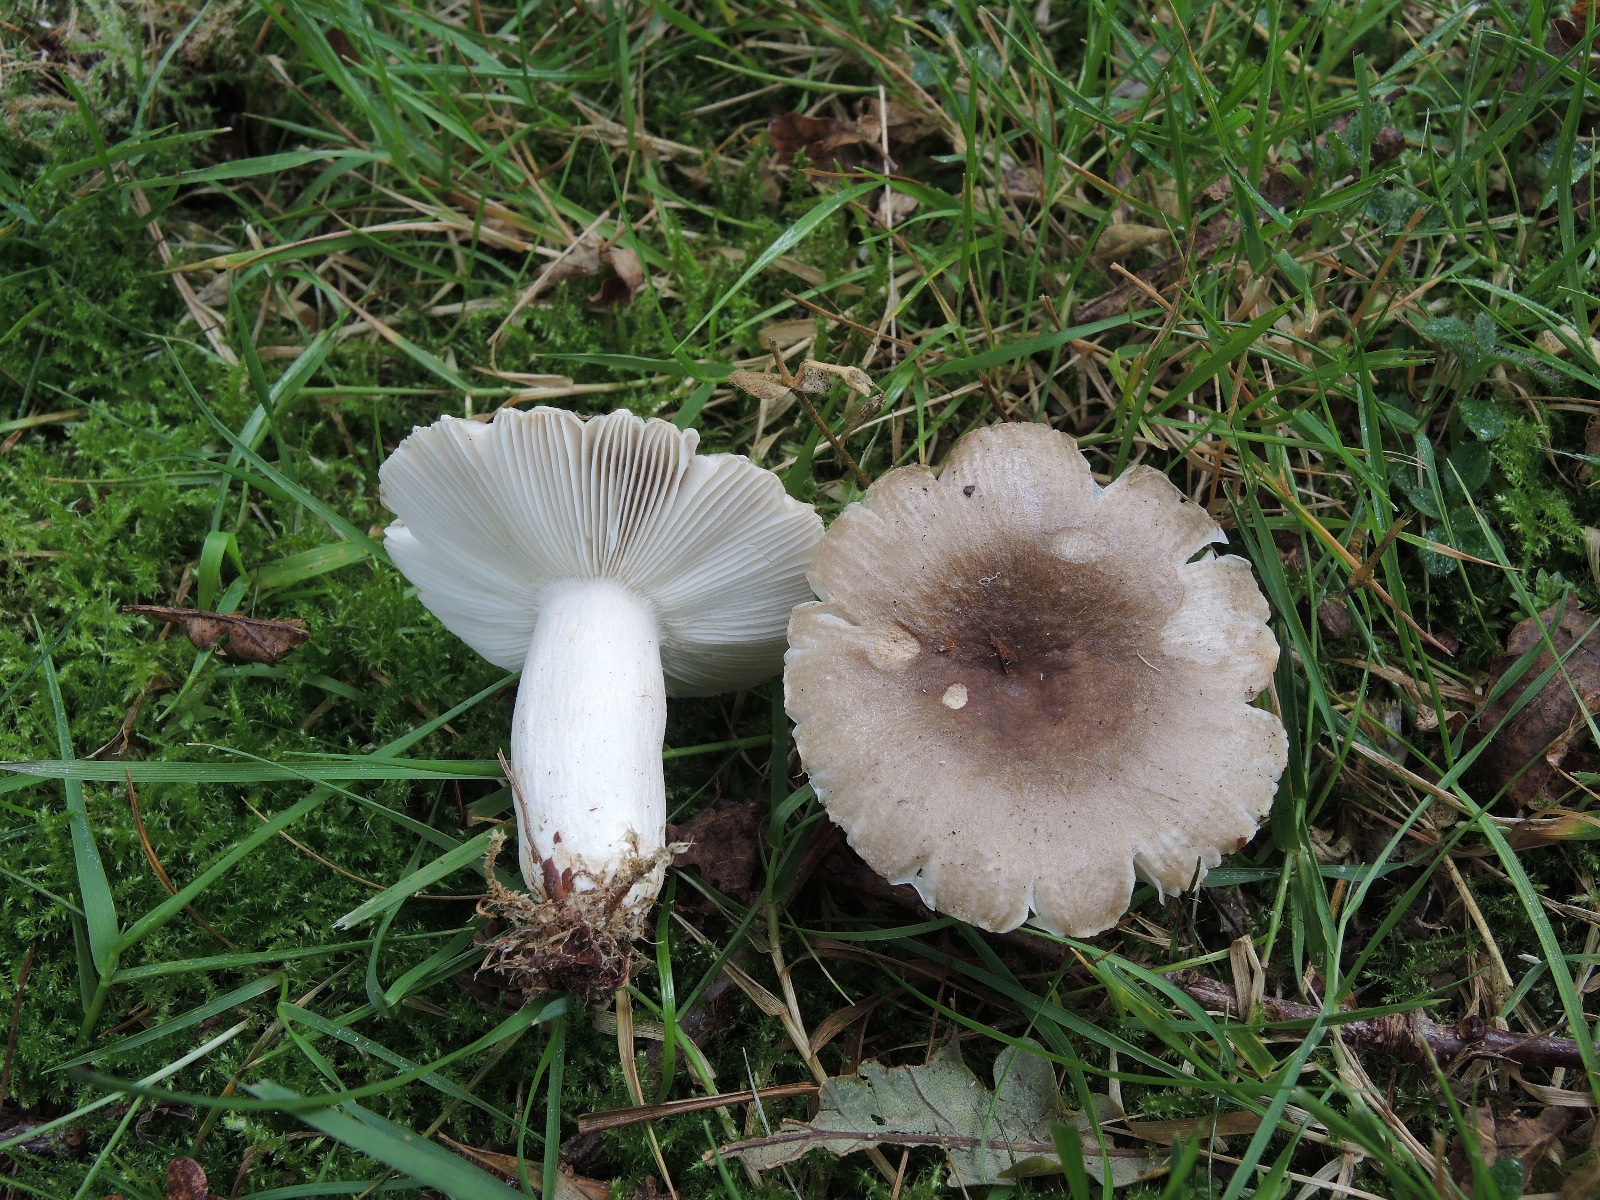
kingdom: Fungi
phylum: Basidiomycota
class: Agaricomycetes
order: Russulales
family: Russulaceae
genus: Russula
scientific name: Russula amoenolens
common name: skarp kam-skørhat
